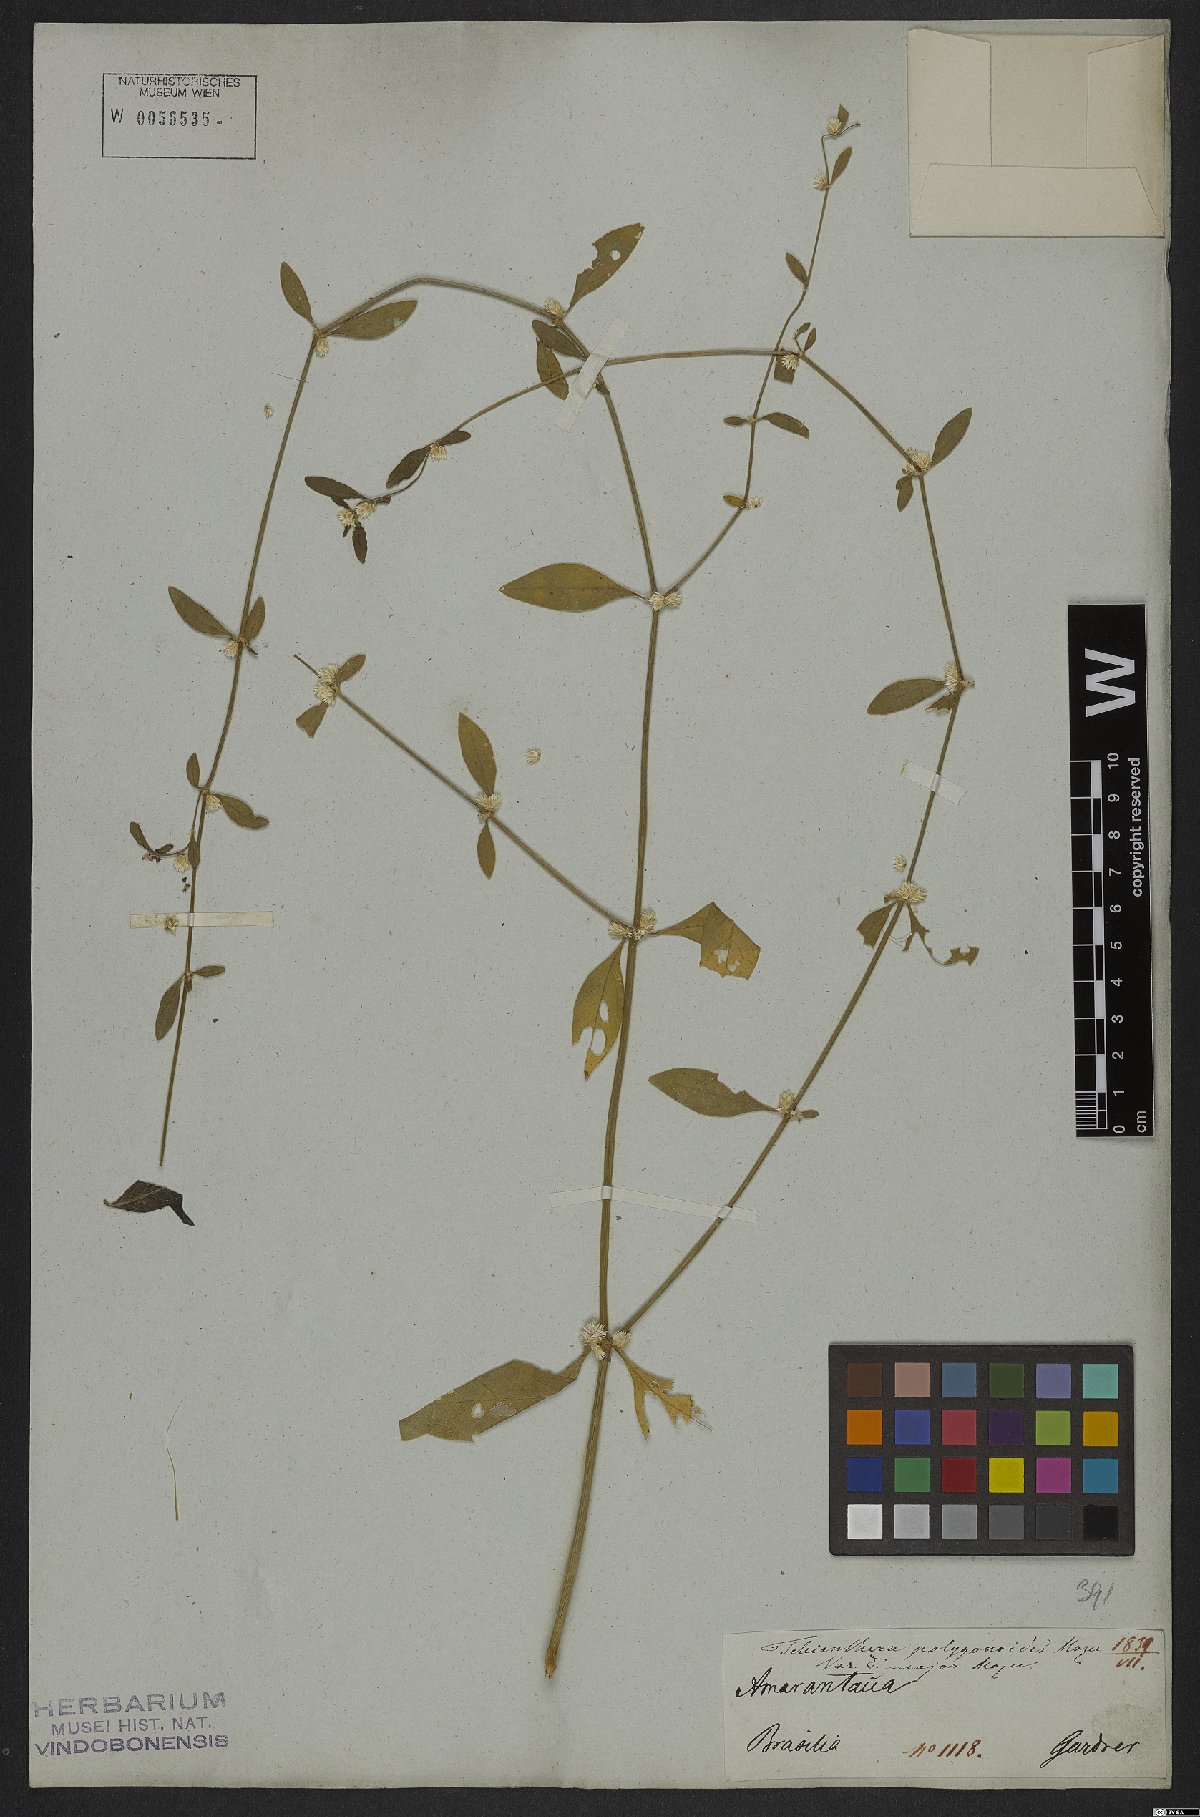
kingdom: Plantae
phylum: Tracheophyta
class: Magnoliopsida
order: Caryophyllales
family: Amaranthaceae
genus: Alternanthera
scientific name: Alternanthera sessilis
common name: Sessile joyweed
